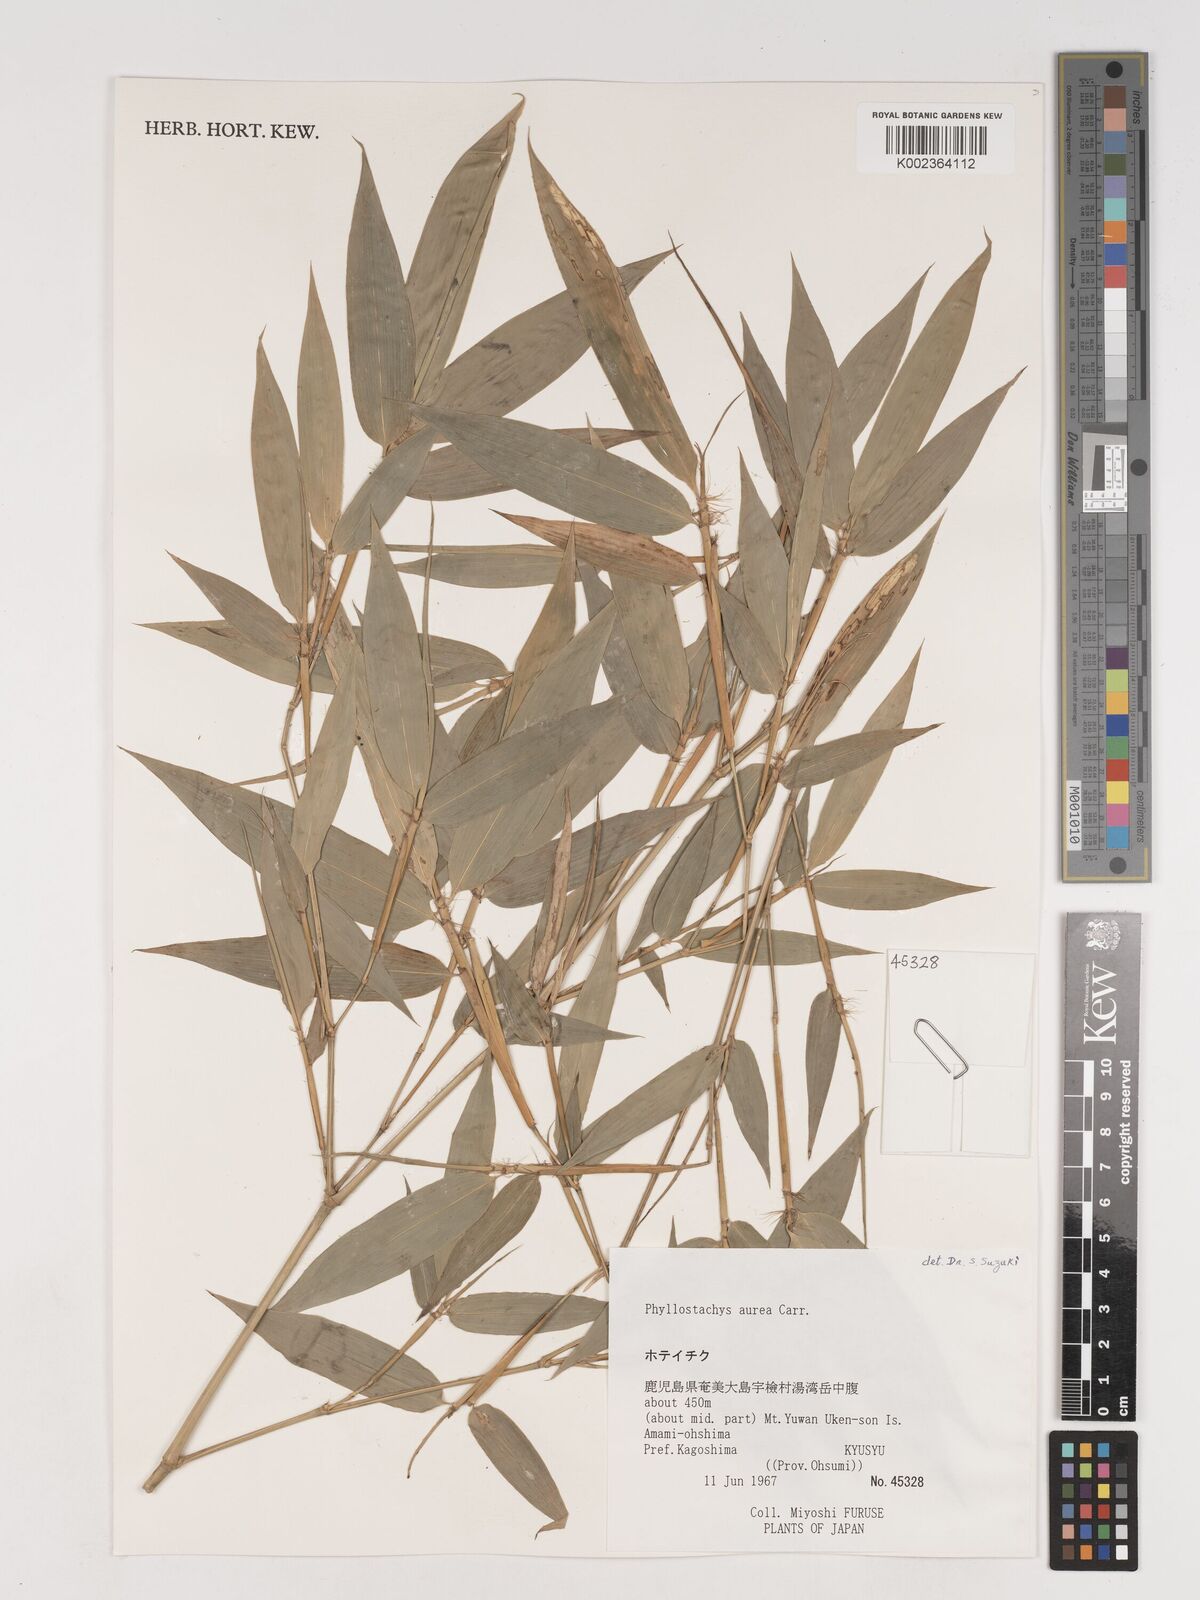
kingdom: Plantae
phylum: Tracheophyta
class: Liliopsida
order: Poales
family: Poaceae
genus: Phyllostachys
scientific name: Phyllostachys aurea
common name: Golden bamboo
